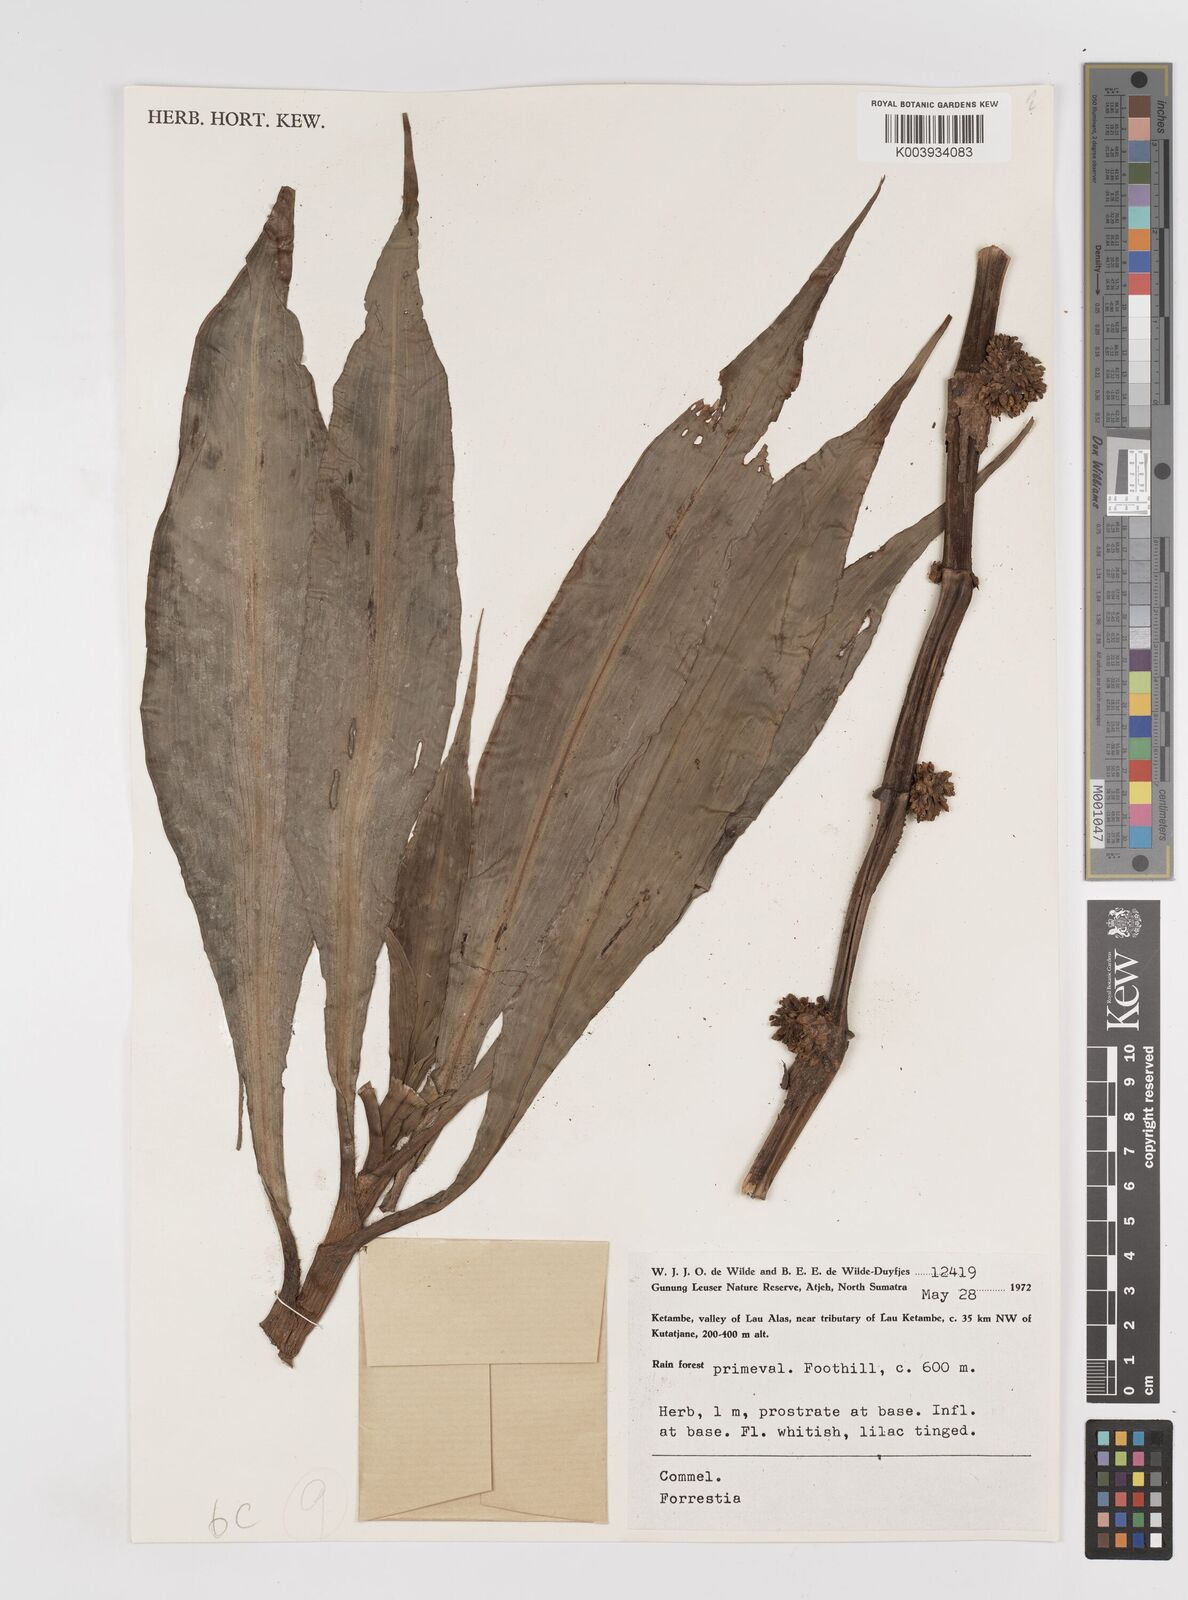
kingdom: Plantae
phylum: Tracheophyta
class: Liliopsida
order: Commelinales
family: Commelinaceae
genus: Amischotolype
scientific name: Amischotolype
